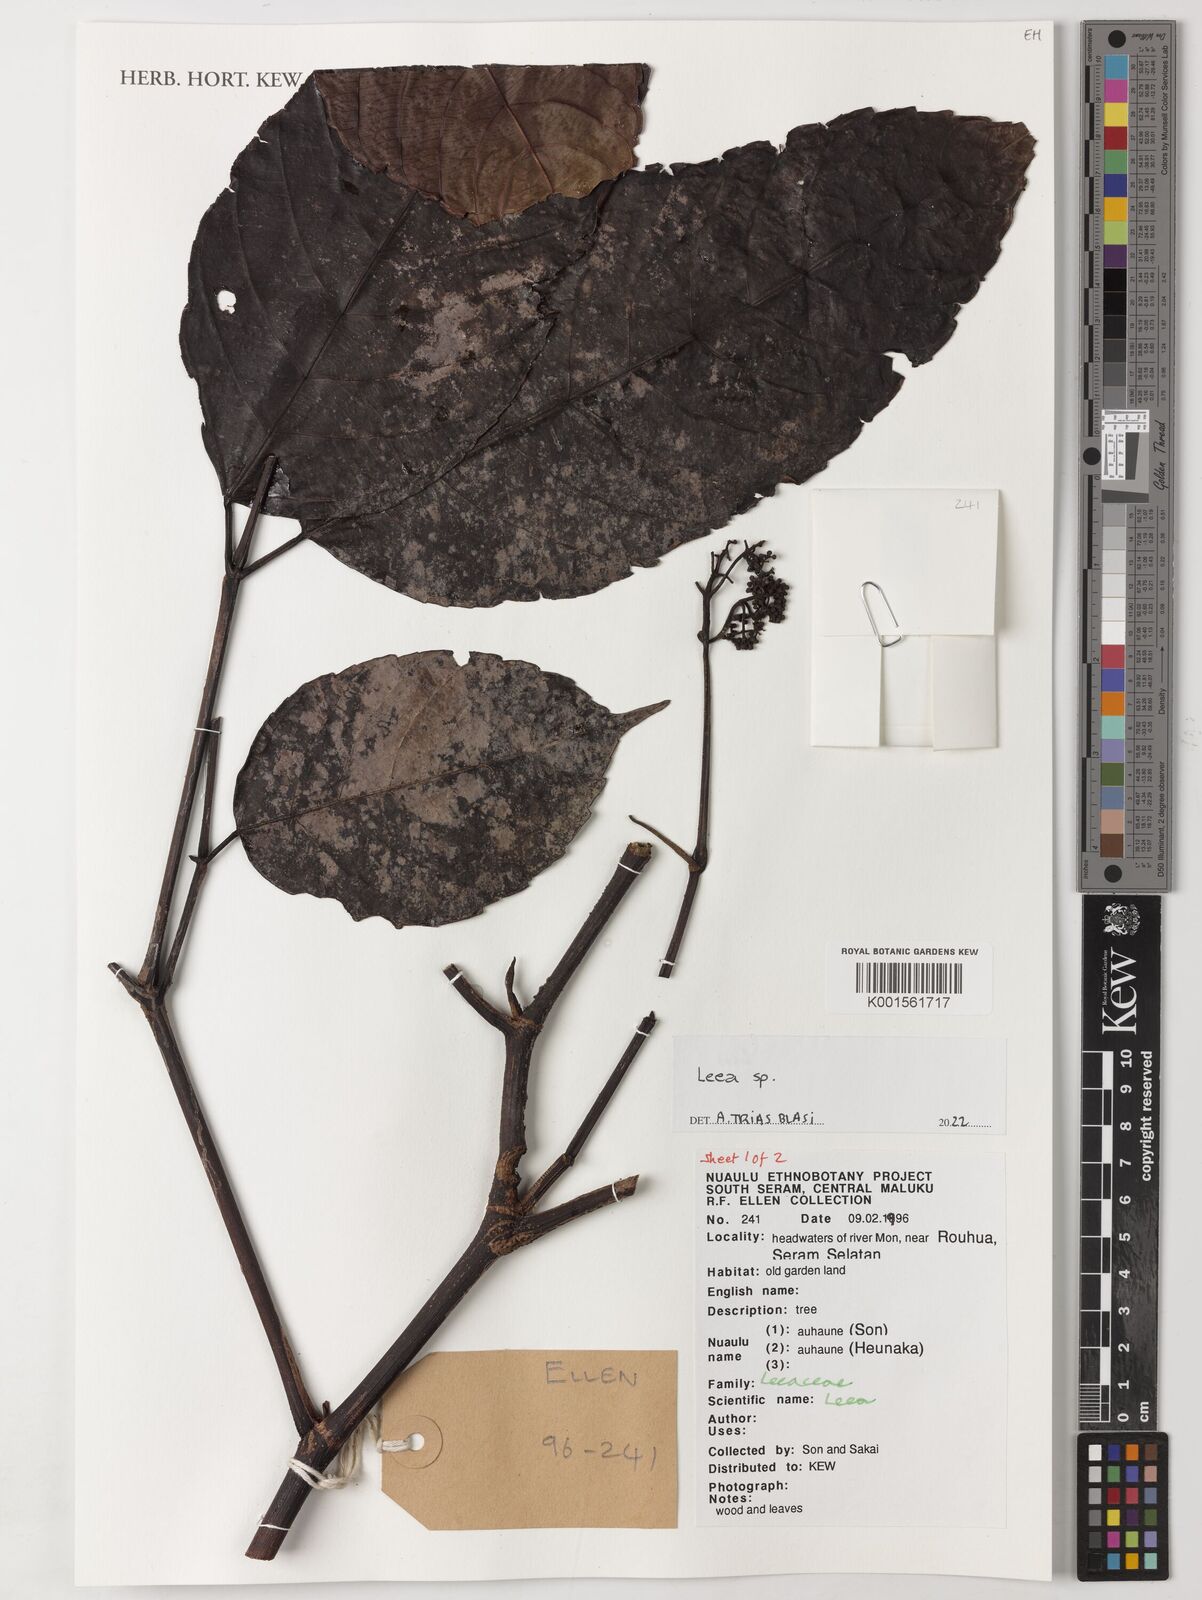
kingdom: Plantae
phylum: Tracheophyta
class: Magnoliopsida
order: Vitales
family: Vitaceae
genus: Leea
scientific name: Leea
